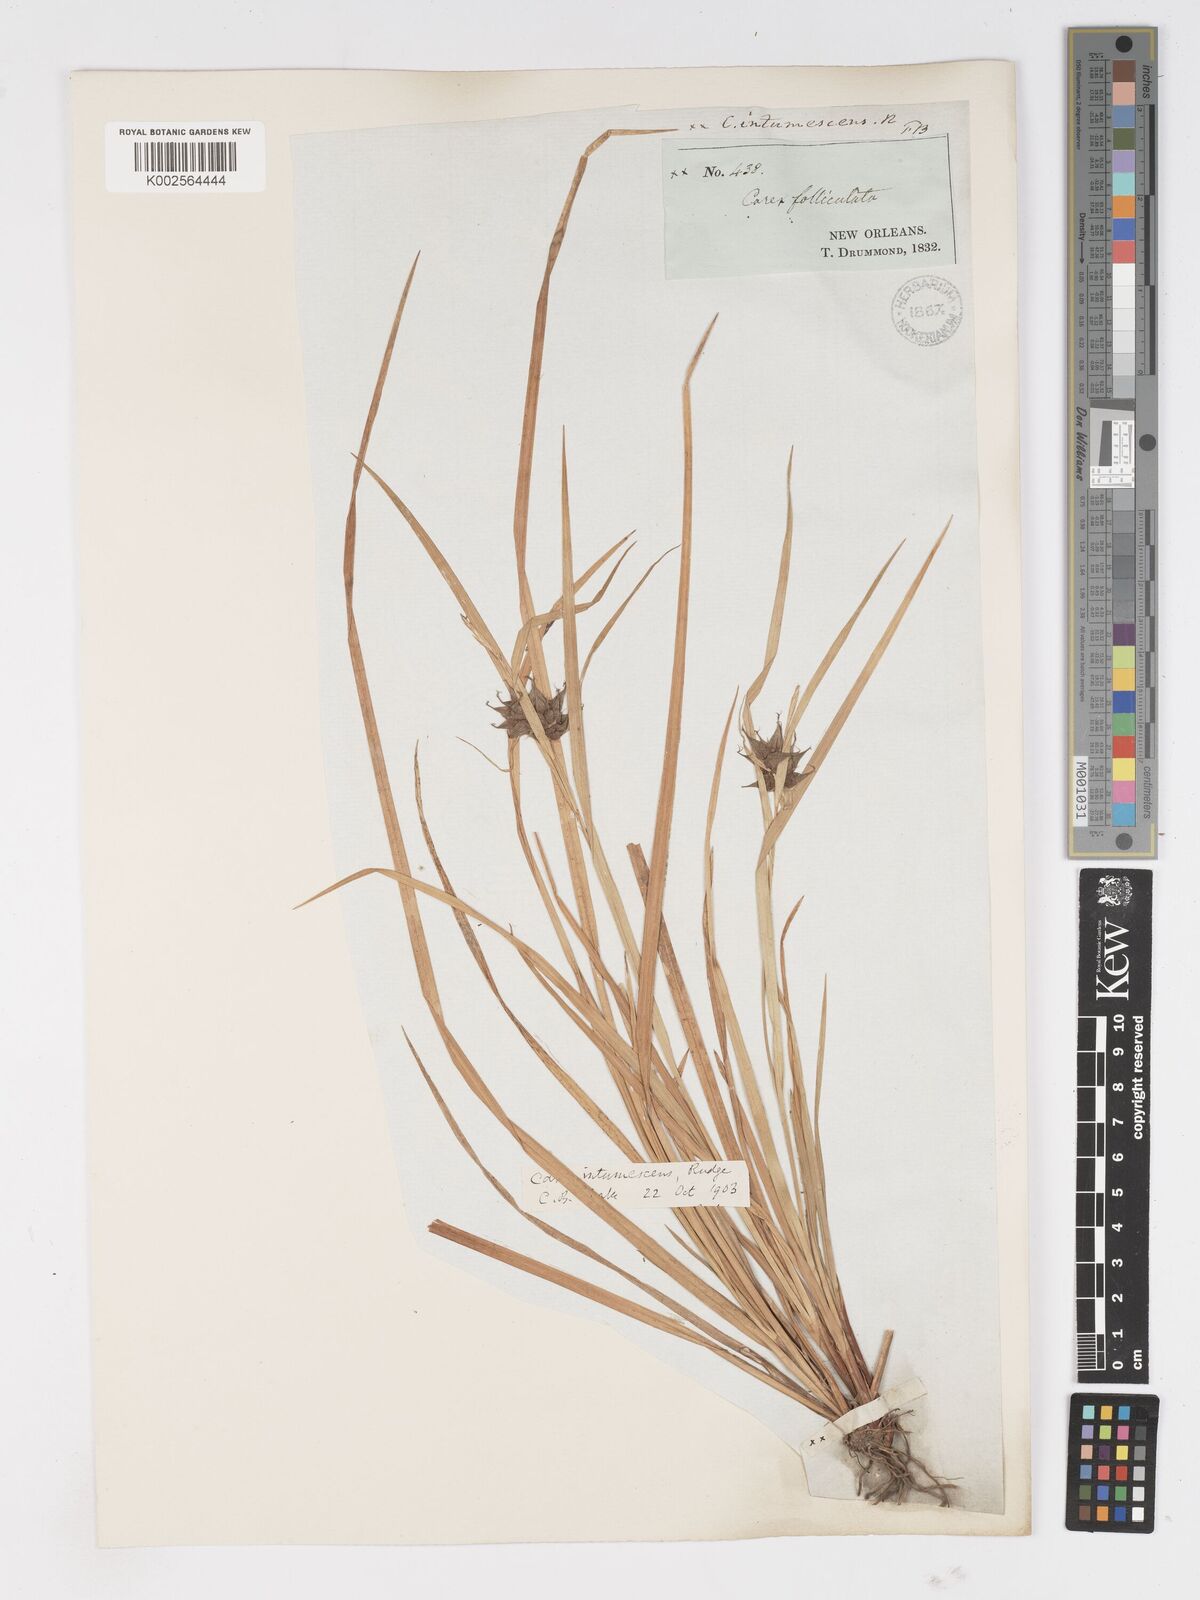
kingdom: Plantae
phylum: Tracheophyta
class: Liliopsida
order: Poales
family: Cyperaceae
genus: Carex
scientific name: Carex intumescens
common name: Greater bladder sedge
